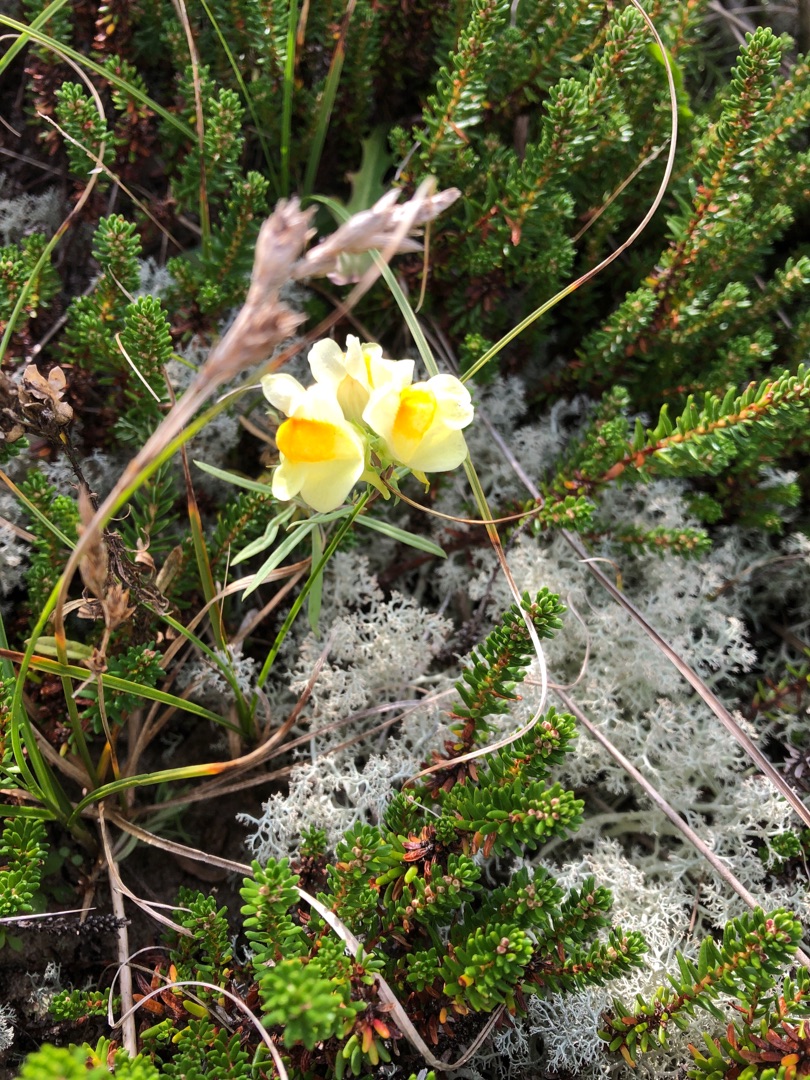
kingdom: Plantae
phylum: Tracheophyta
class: Magnoliopsida
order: Lamiales
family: Plantaginaceae
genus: Linaria
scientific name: Linaria vulgaris
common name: Almindelig torskemund
